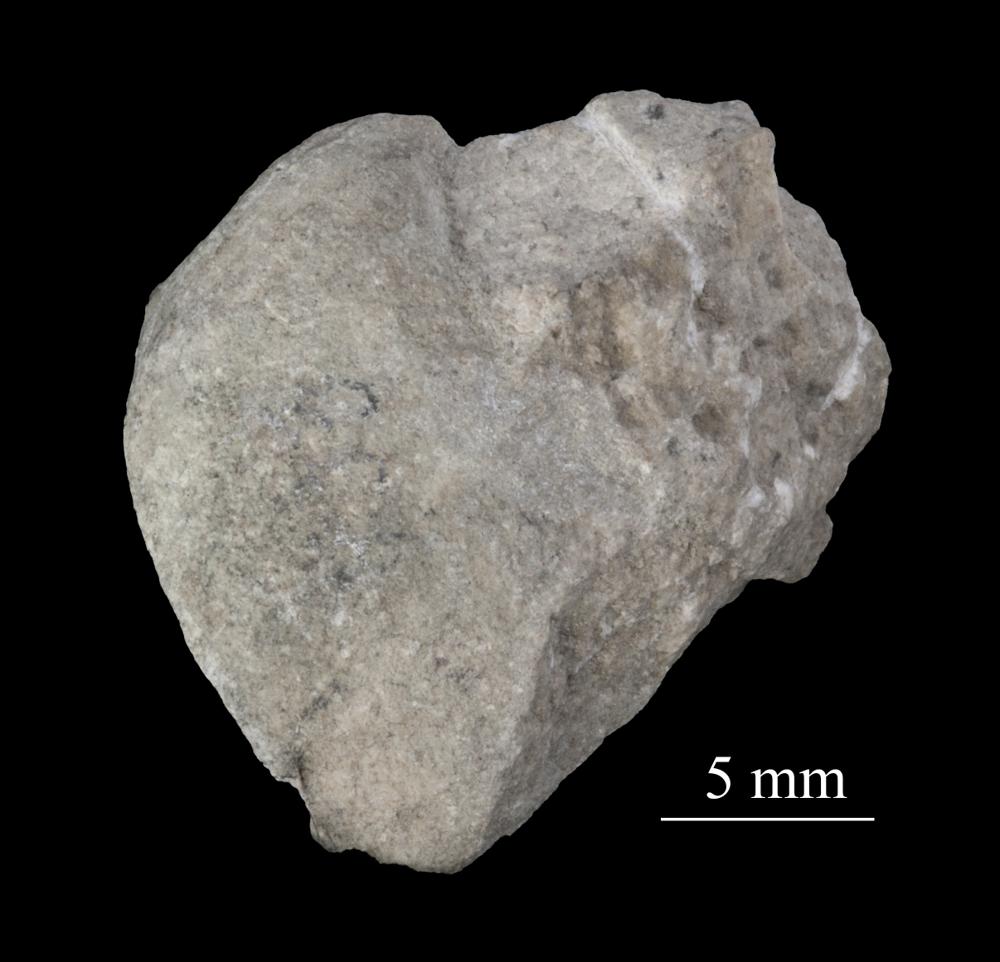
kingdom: Animalia
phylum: Mollusca
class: Gastropoda
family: Lesueurillidae
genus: Pararaphistoma
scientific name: Pararaphistoma Raphistoma scalare
